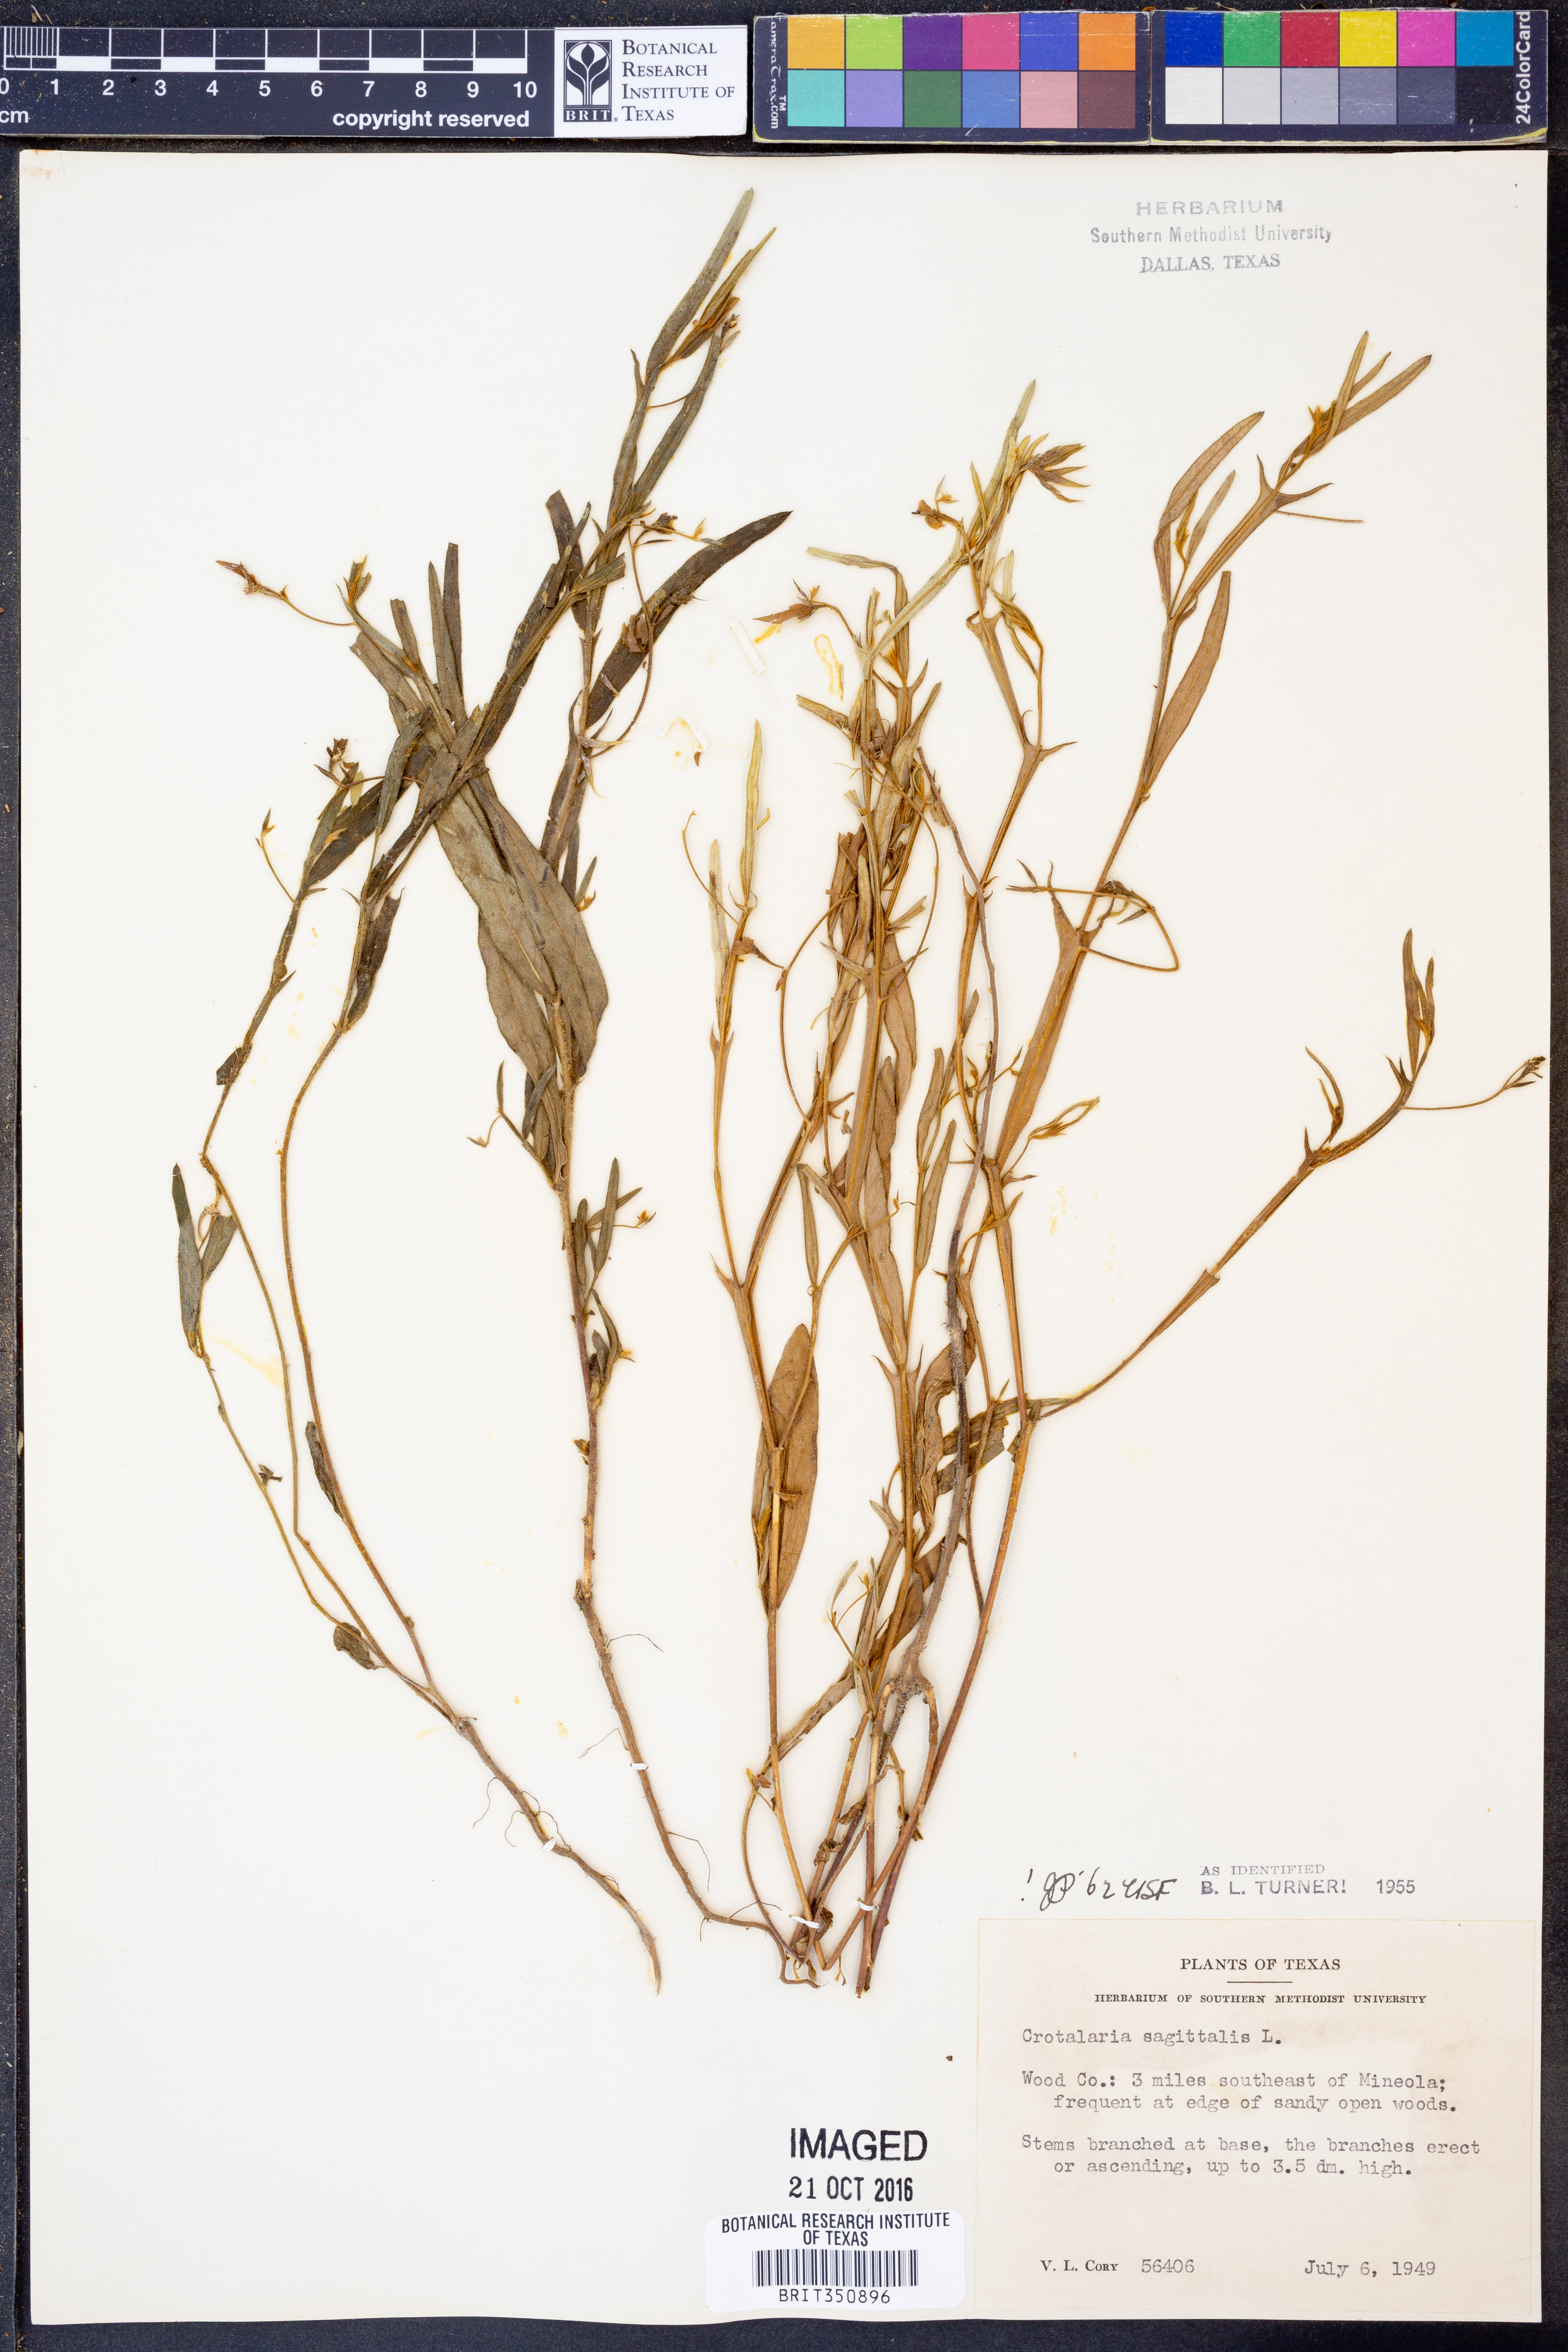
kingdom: Plantae
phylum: Tracheophyta
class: Magnoliopsida
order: Fabales
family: Fabaceae
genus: Crotalaria
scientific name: Crotalaria sagittalis
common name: Arrowhead rattlebox
